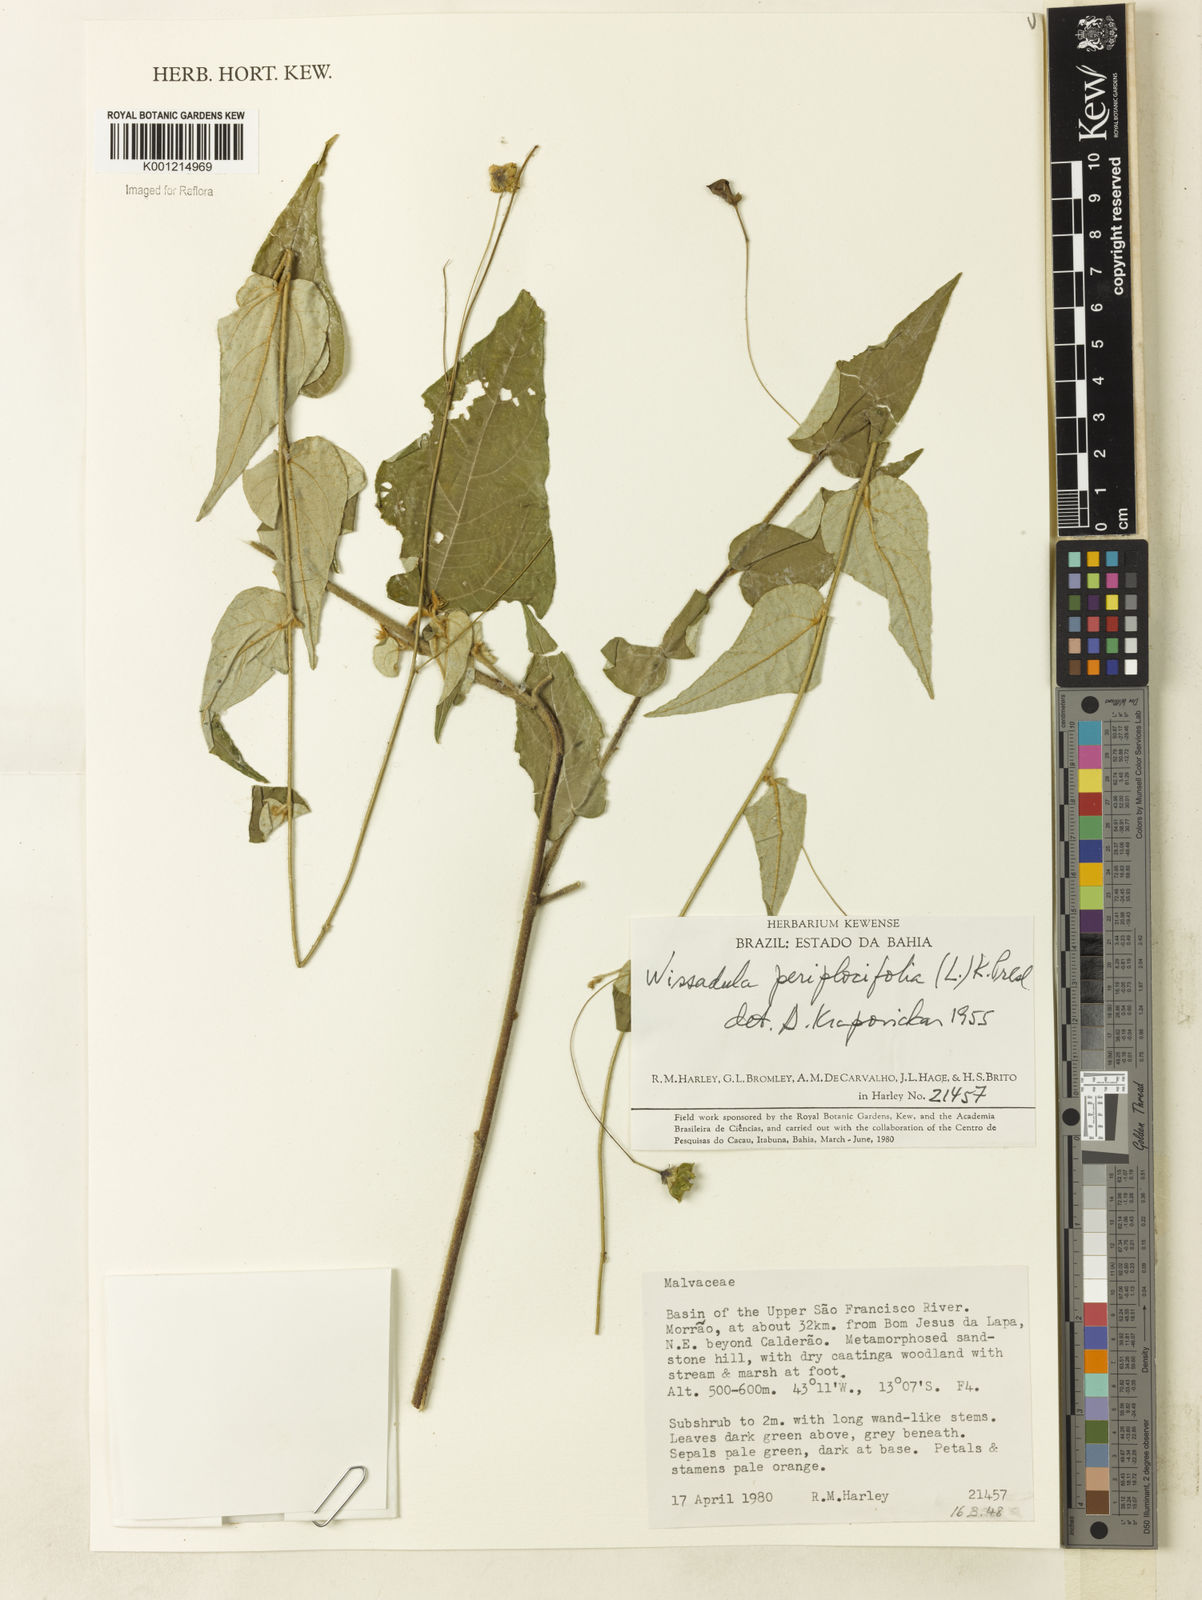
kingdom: Plantae
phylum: Tracheophyta
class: Magnoliopsida
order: Malvales
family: Malvaceae
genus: Wissadula
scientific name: Wissadula periplocifolia
